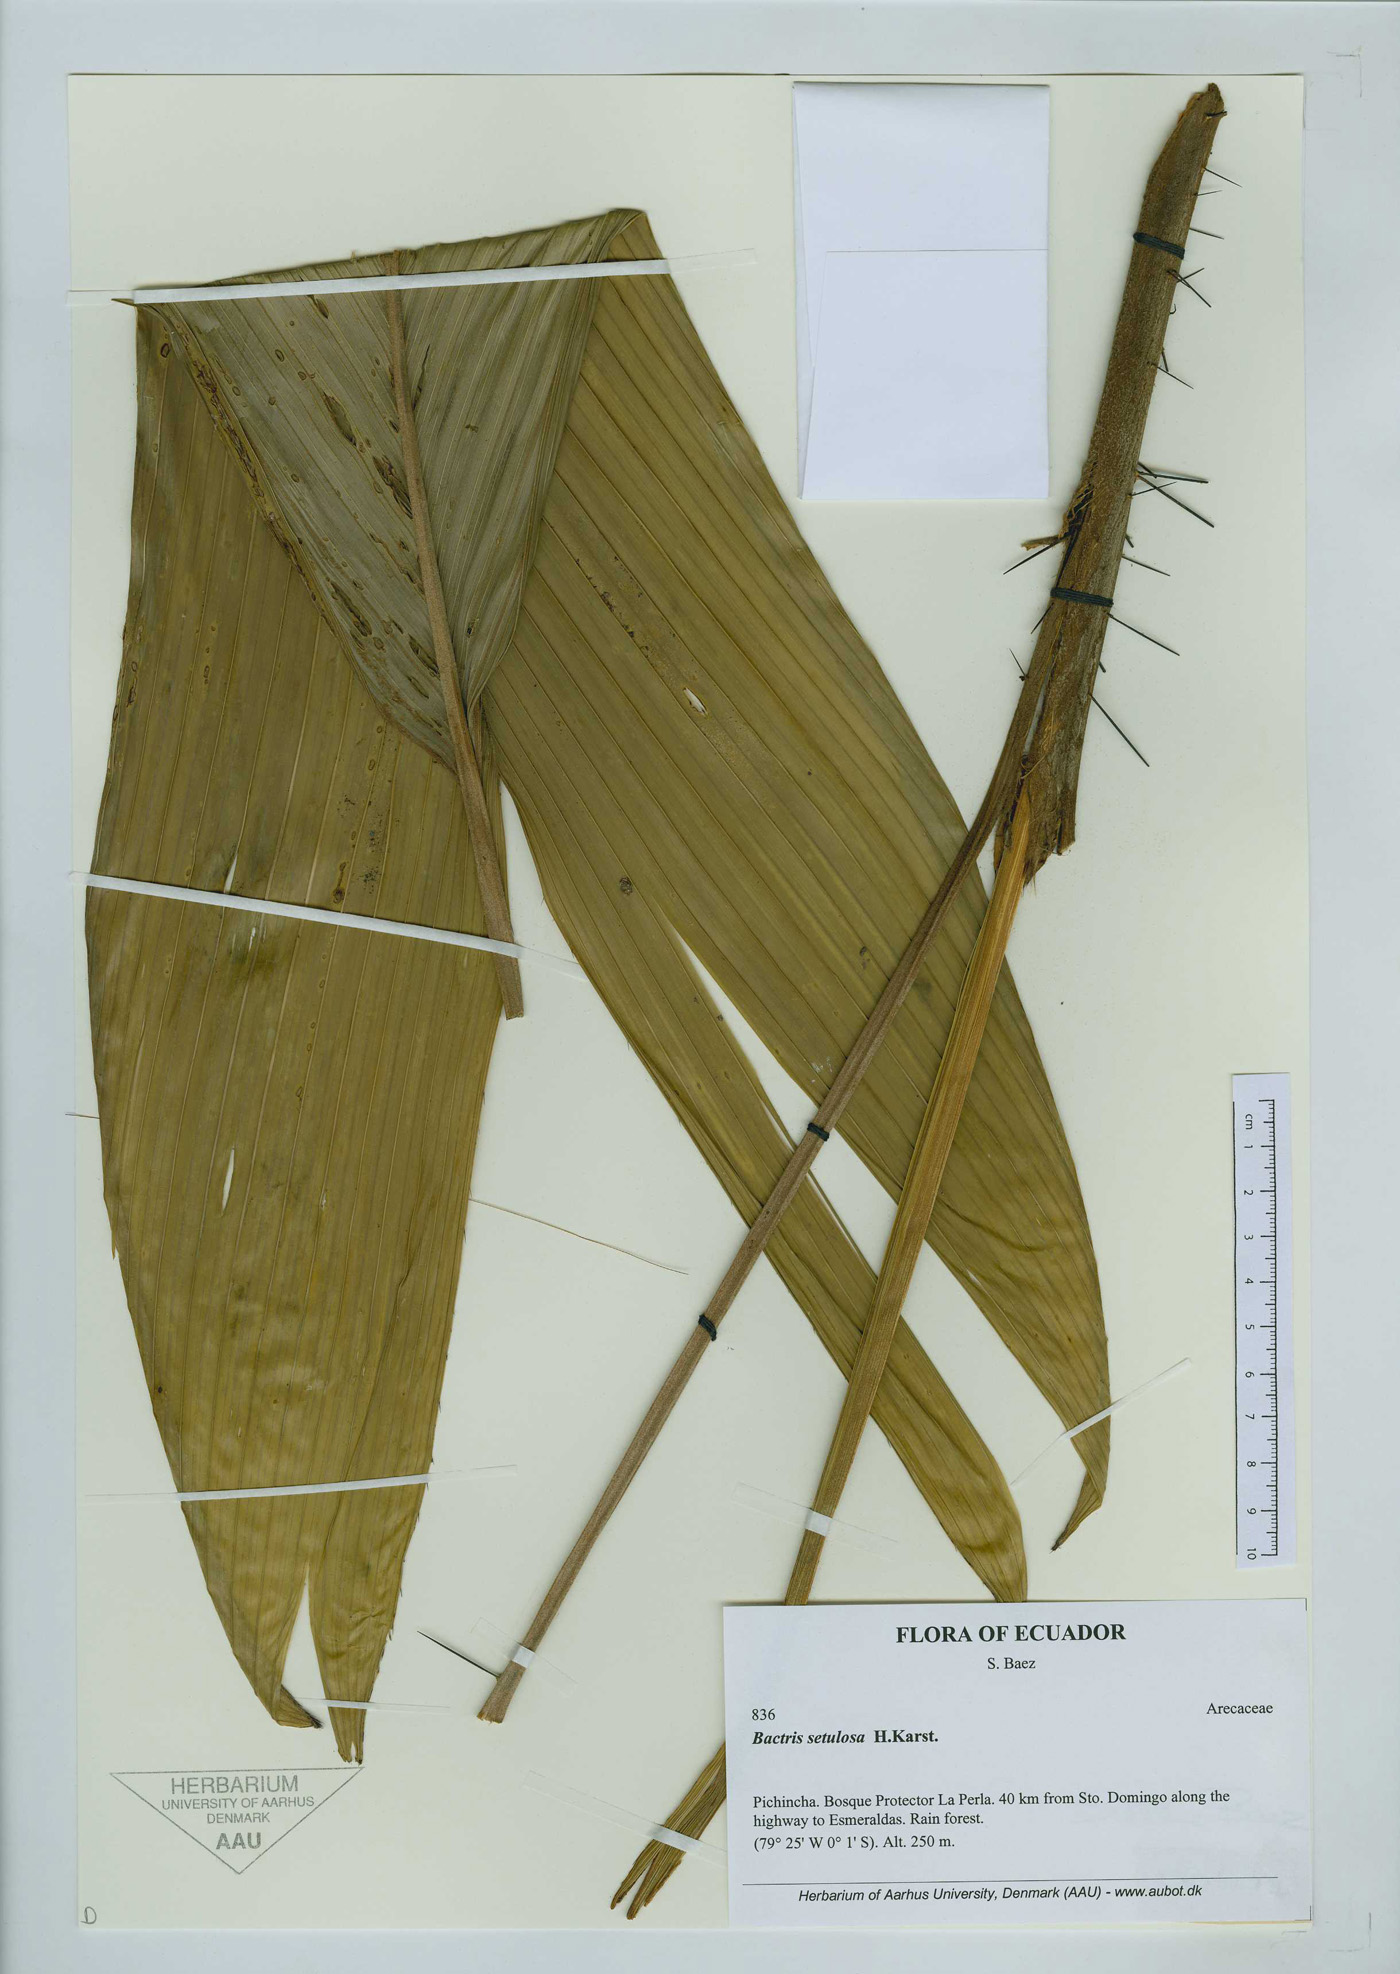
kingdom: Plantae
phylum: Tracheophyta
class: Liliopsida
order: Arecales
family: Arecaceae
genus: Bactris
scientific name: Bactris setulosa
